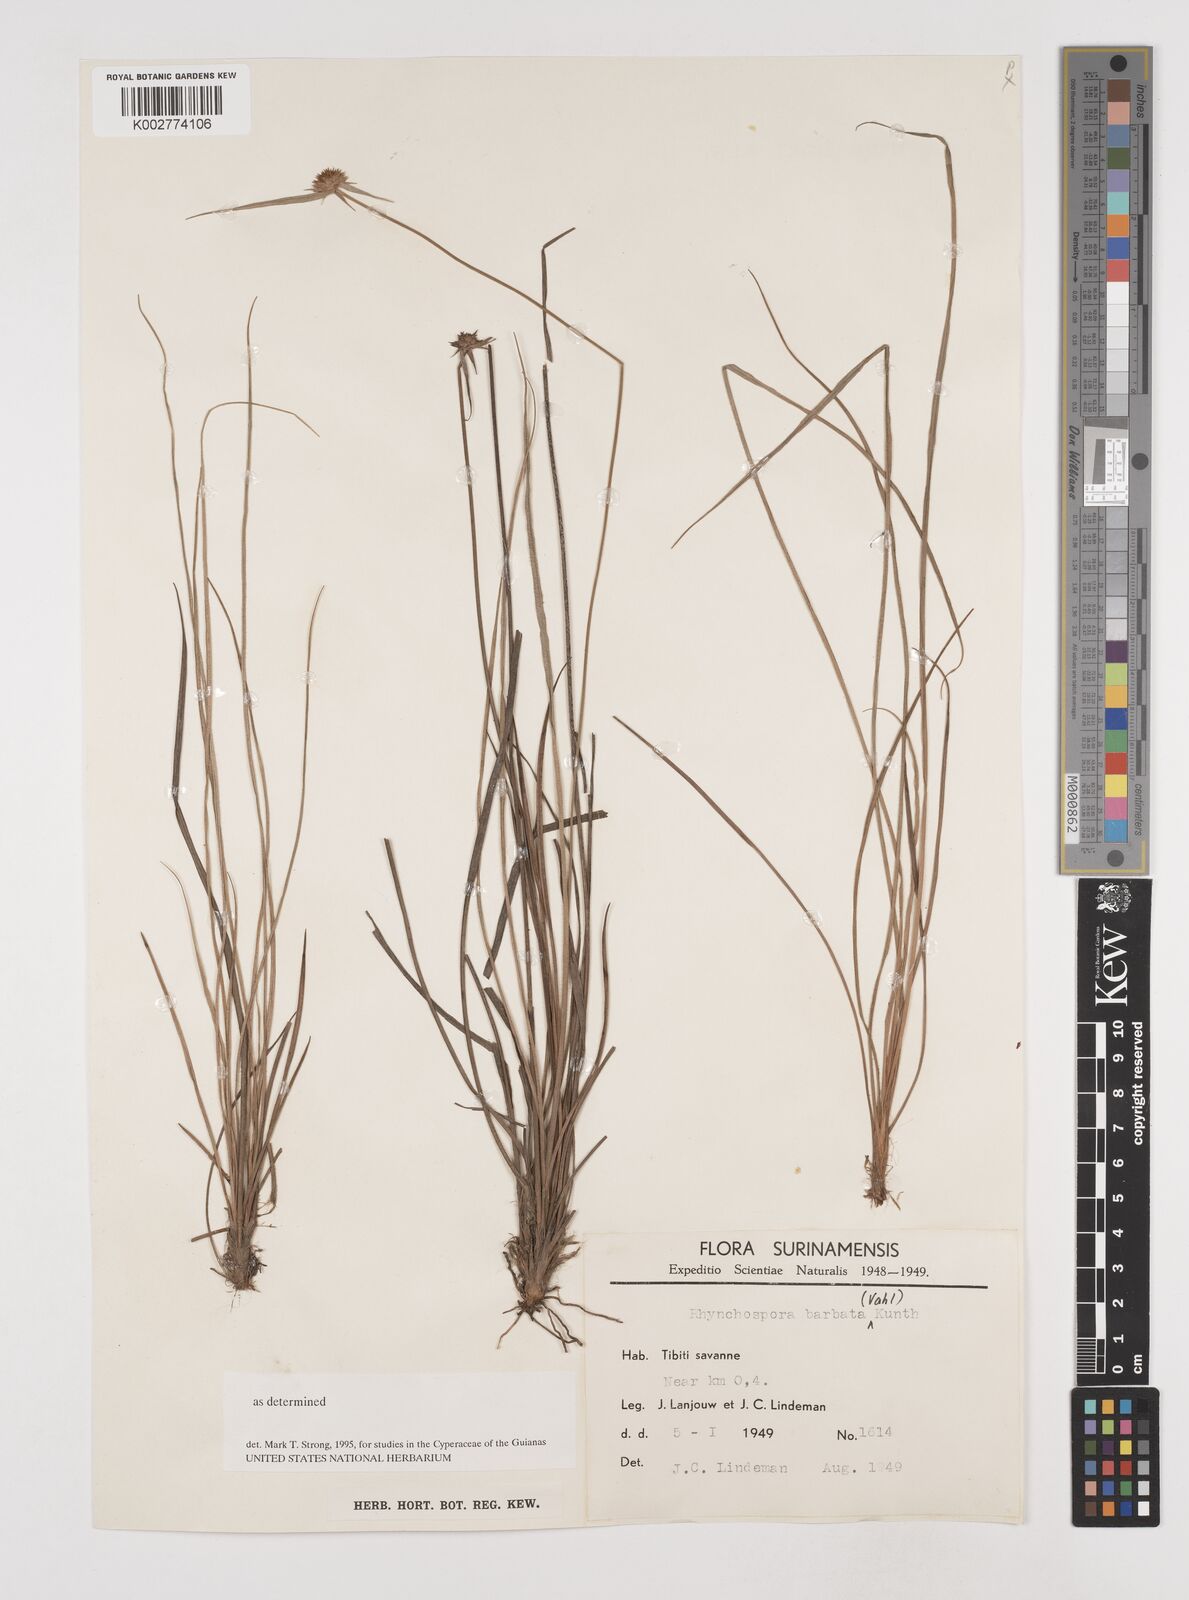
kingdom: Plantae
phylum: Tracheophyta
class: Liliopsida
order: Poales
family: Cyperaceae
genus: Rhynchospora
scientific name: Rhynchospora barbata
